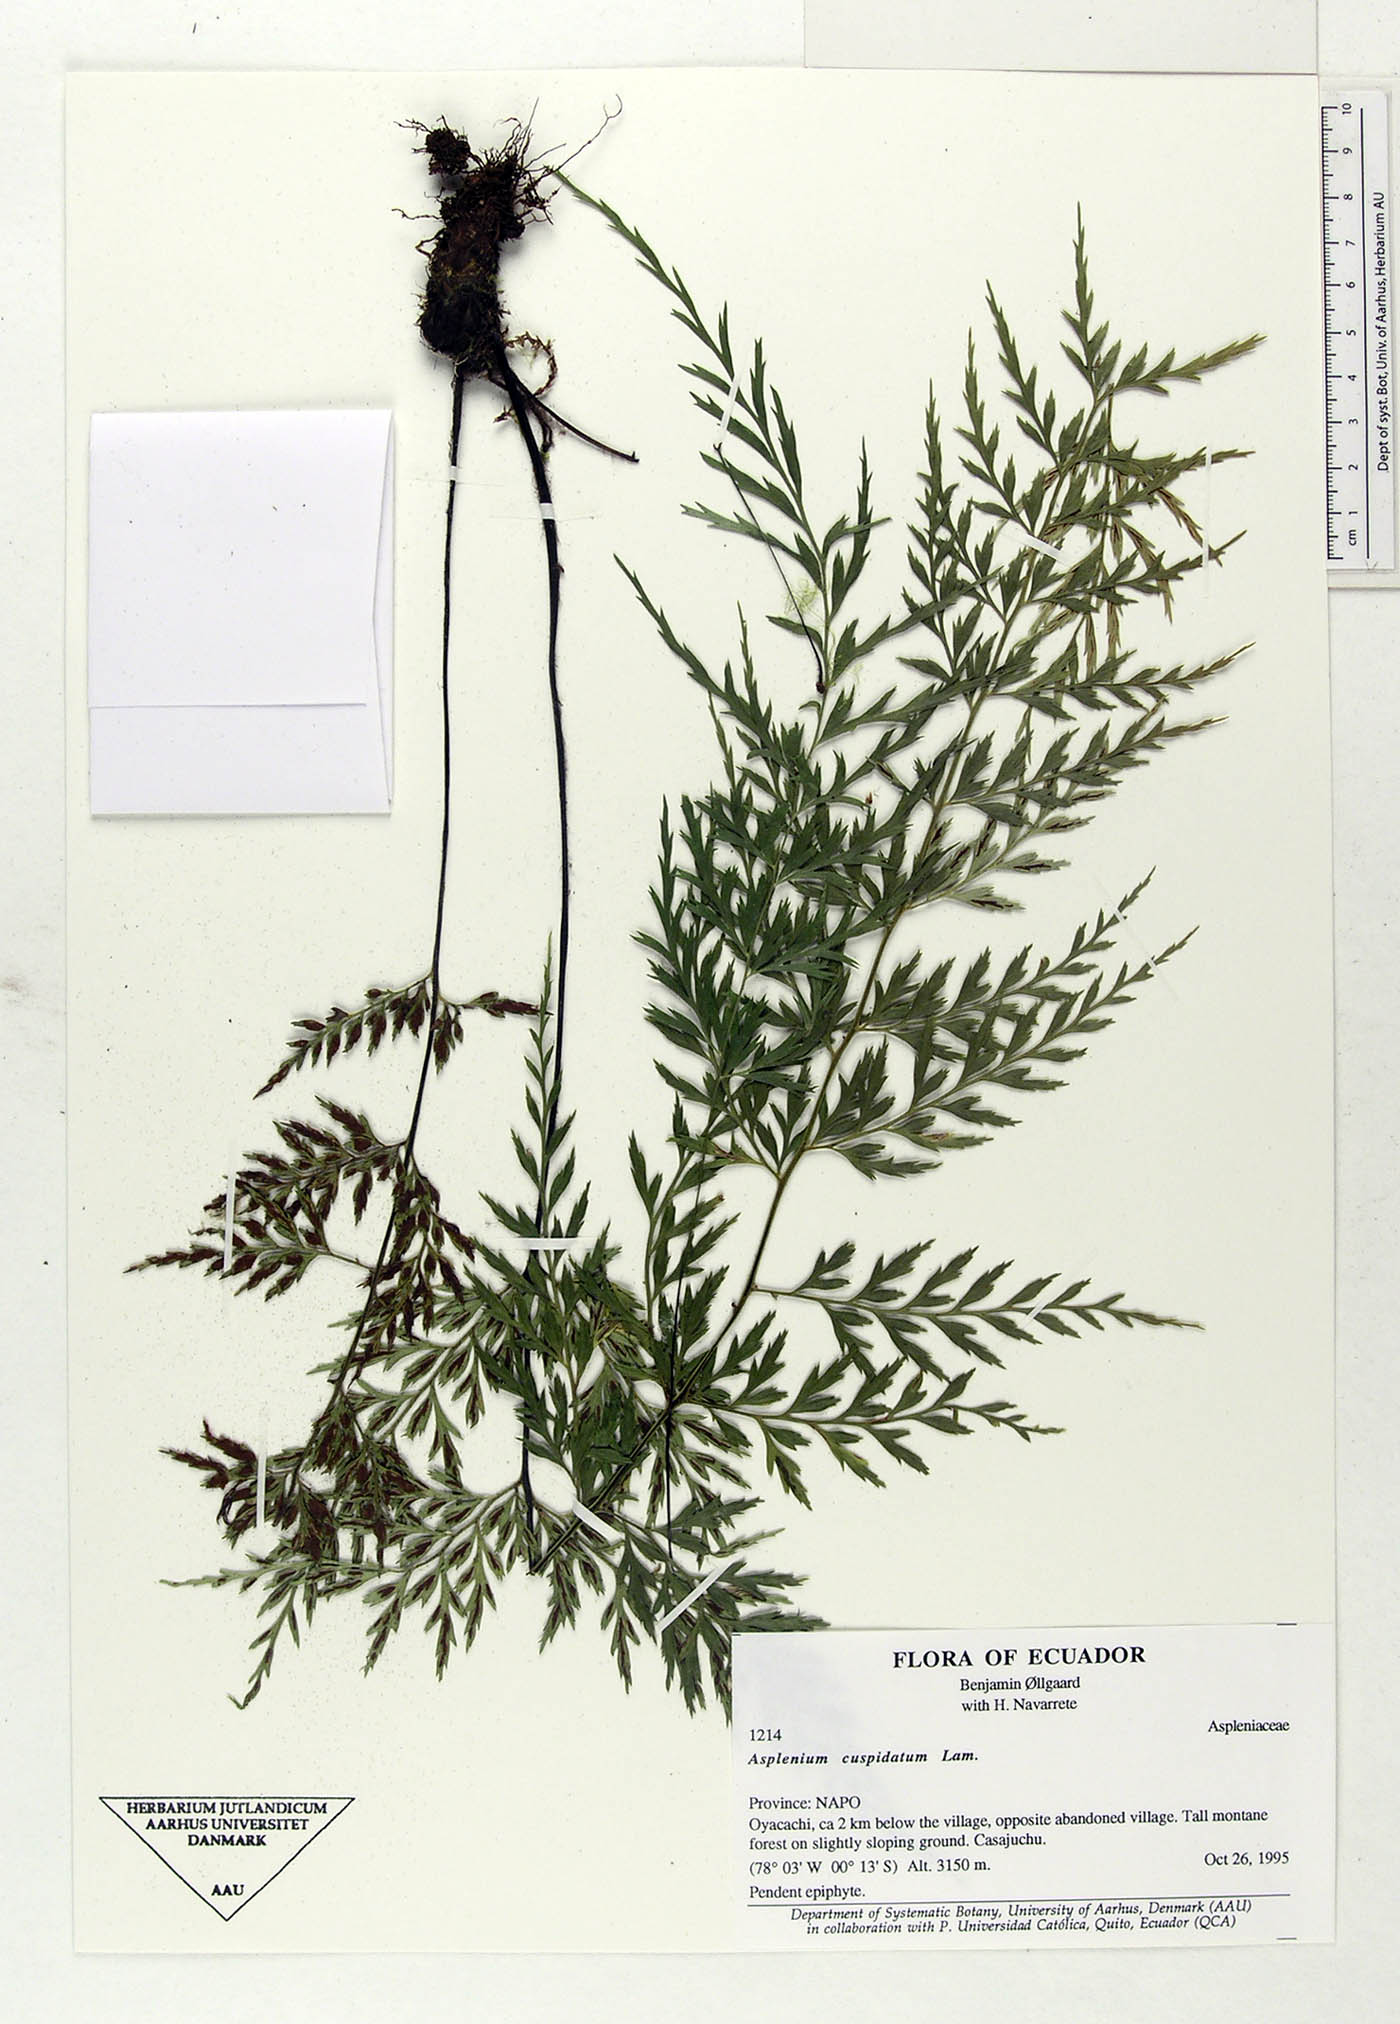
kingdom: Plantae
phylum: Tracheophyta
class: Polypodiopsida
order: Polypodiales
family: Aspleniaceae
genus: Asplenium
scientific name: Asplenium cuspidatum
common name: Eared spleenwort
